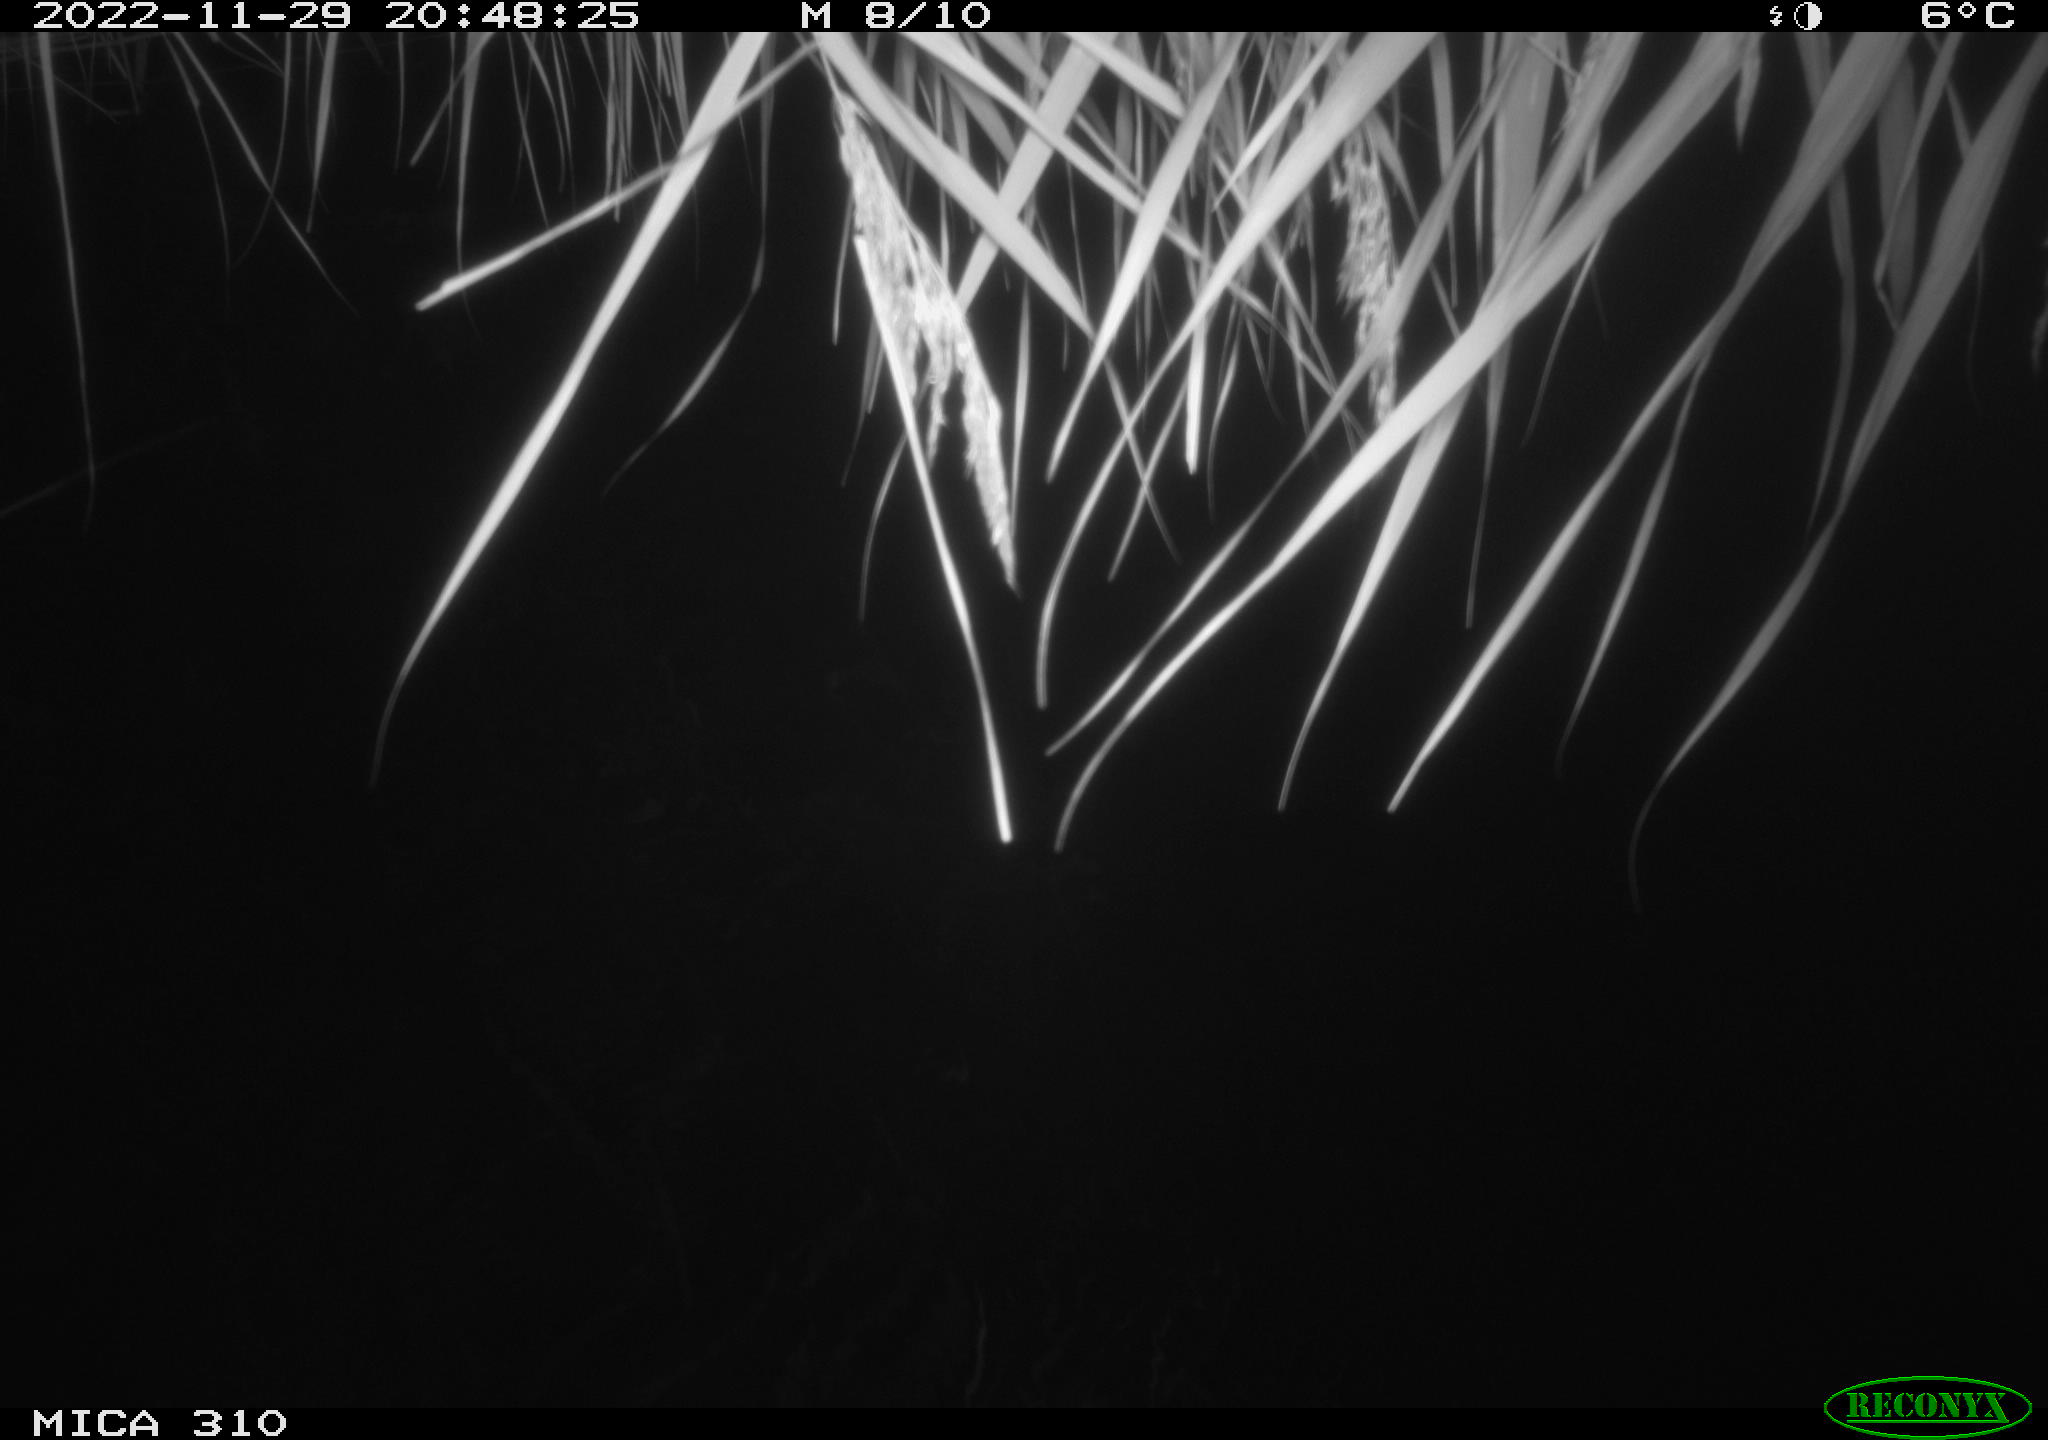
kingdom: Animalia
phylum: Chordata
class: Mammalia
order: Rodentia
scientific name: Rodentia
